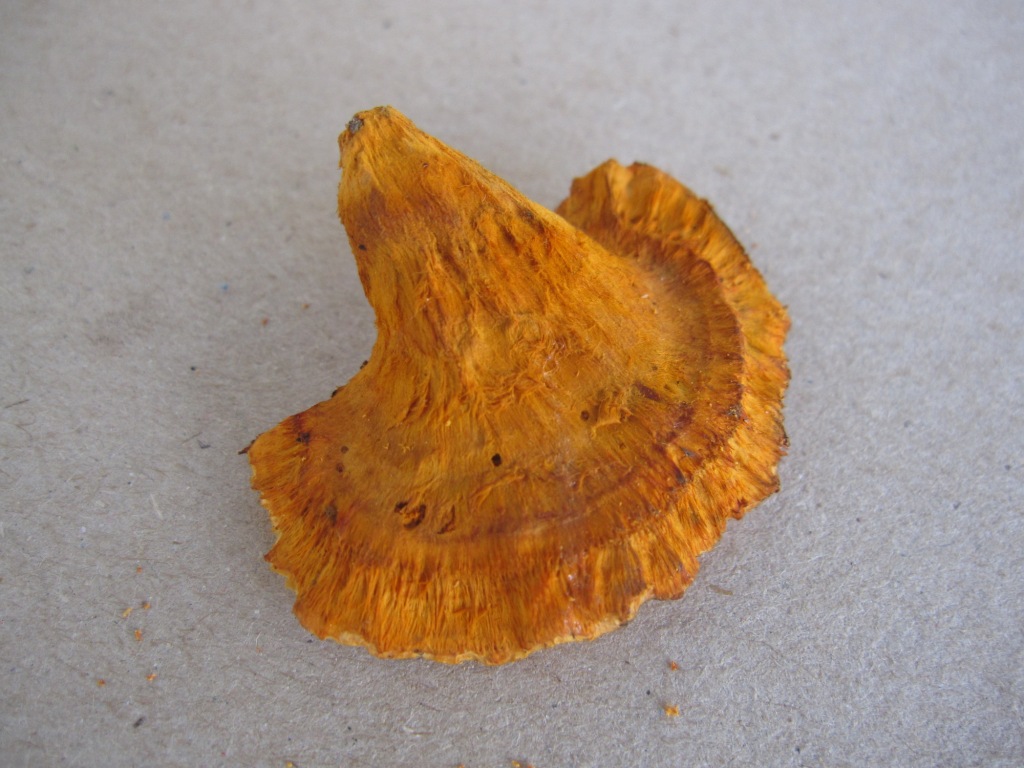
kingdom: Fungi
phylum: Basidiomycota
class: Agaricomycetes
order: Polyporales
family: Pycnoporellaceae
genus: Pycnoporellus
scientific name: Pycnoporellus fulgens
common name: flammeporesvamp
